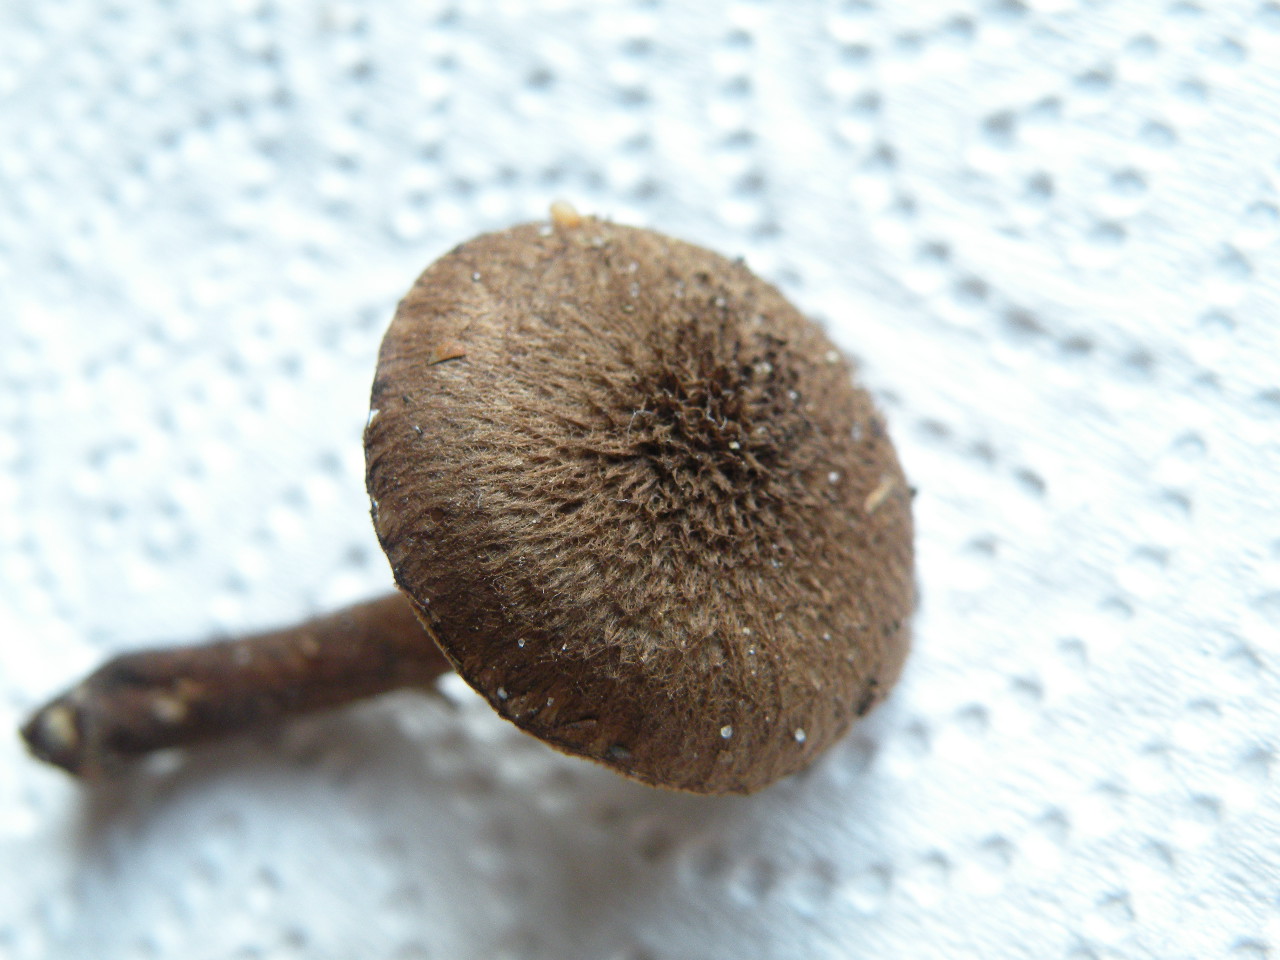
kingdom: Fungi
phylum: Basidiomycota
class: Agaricomycetes
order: Agaricales
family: Inocybaceae
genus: Inocybe
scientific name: Inocybe stellatospora
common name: spidsskællet trævlhat
